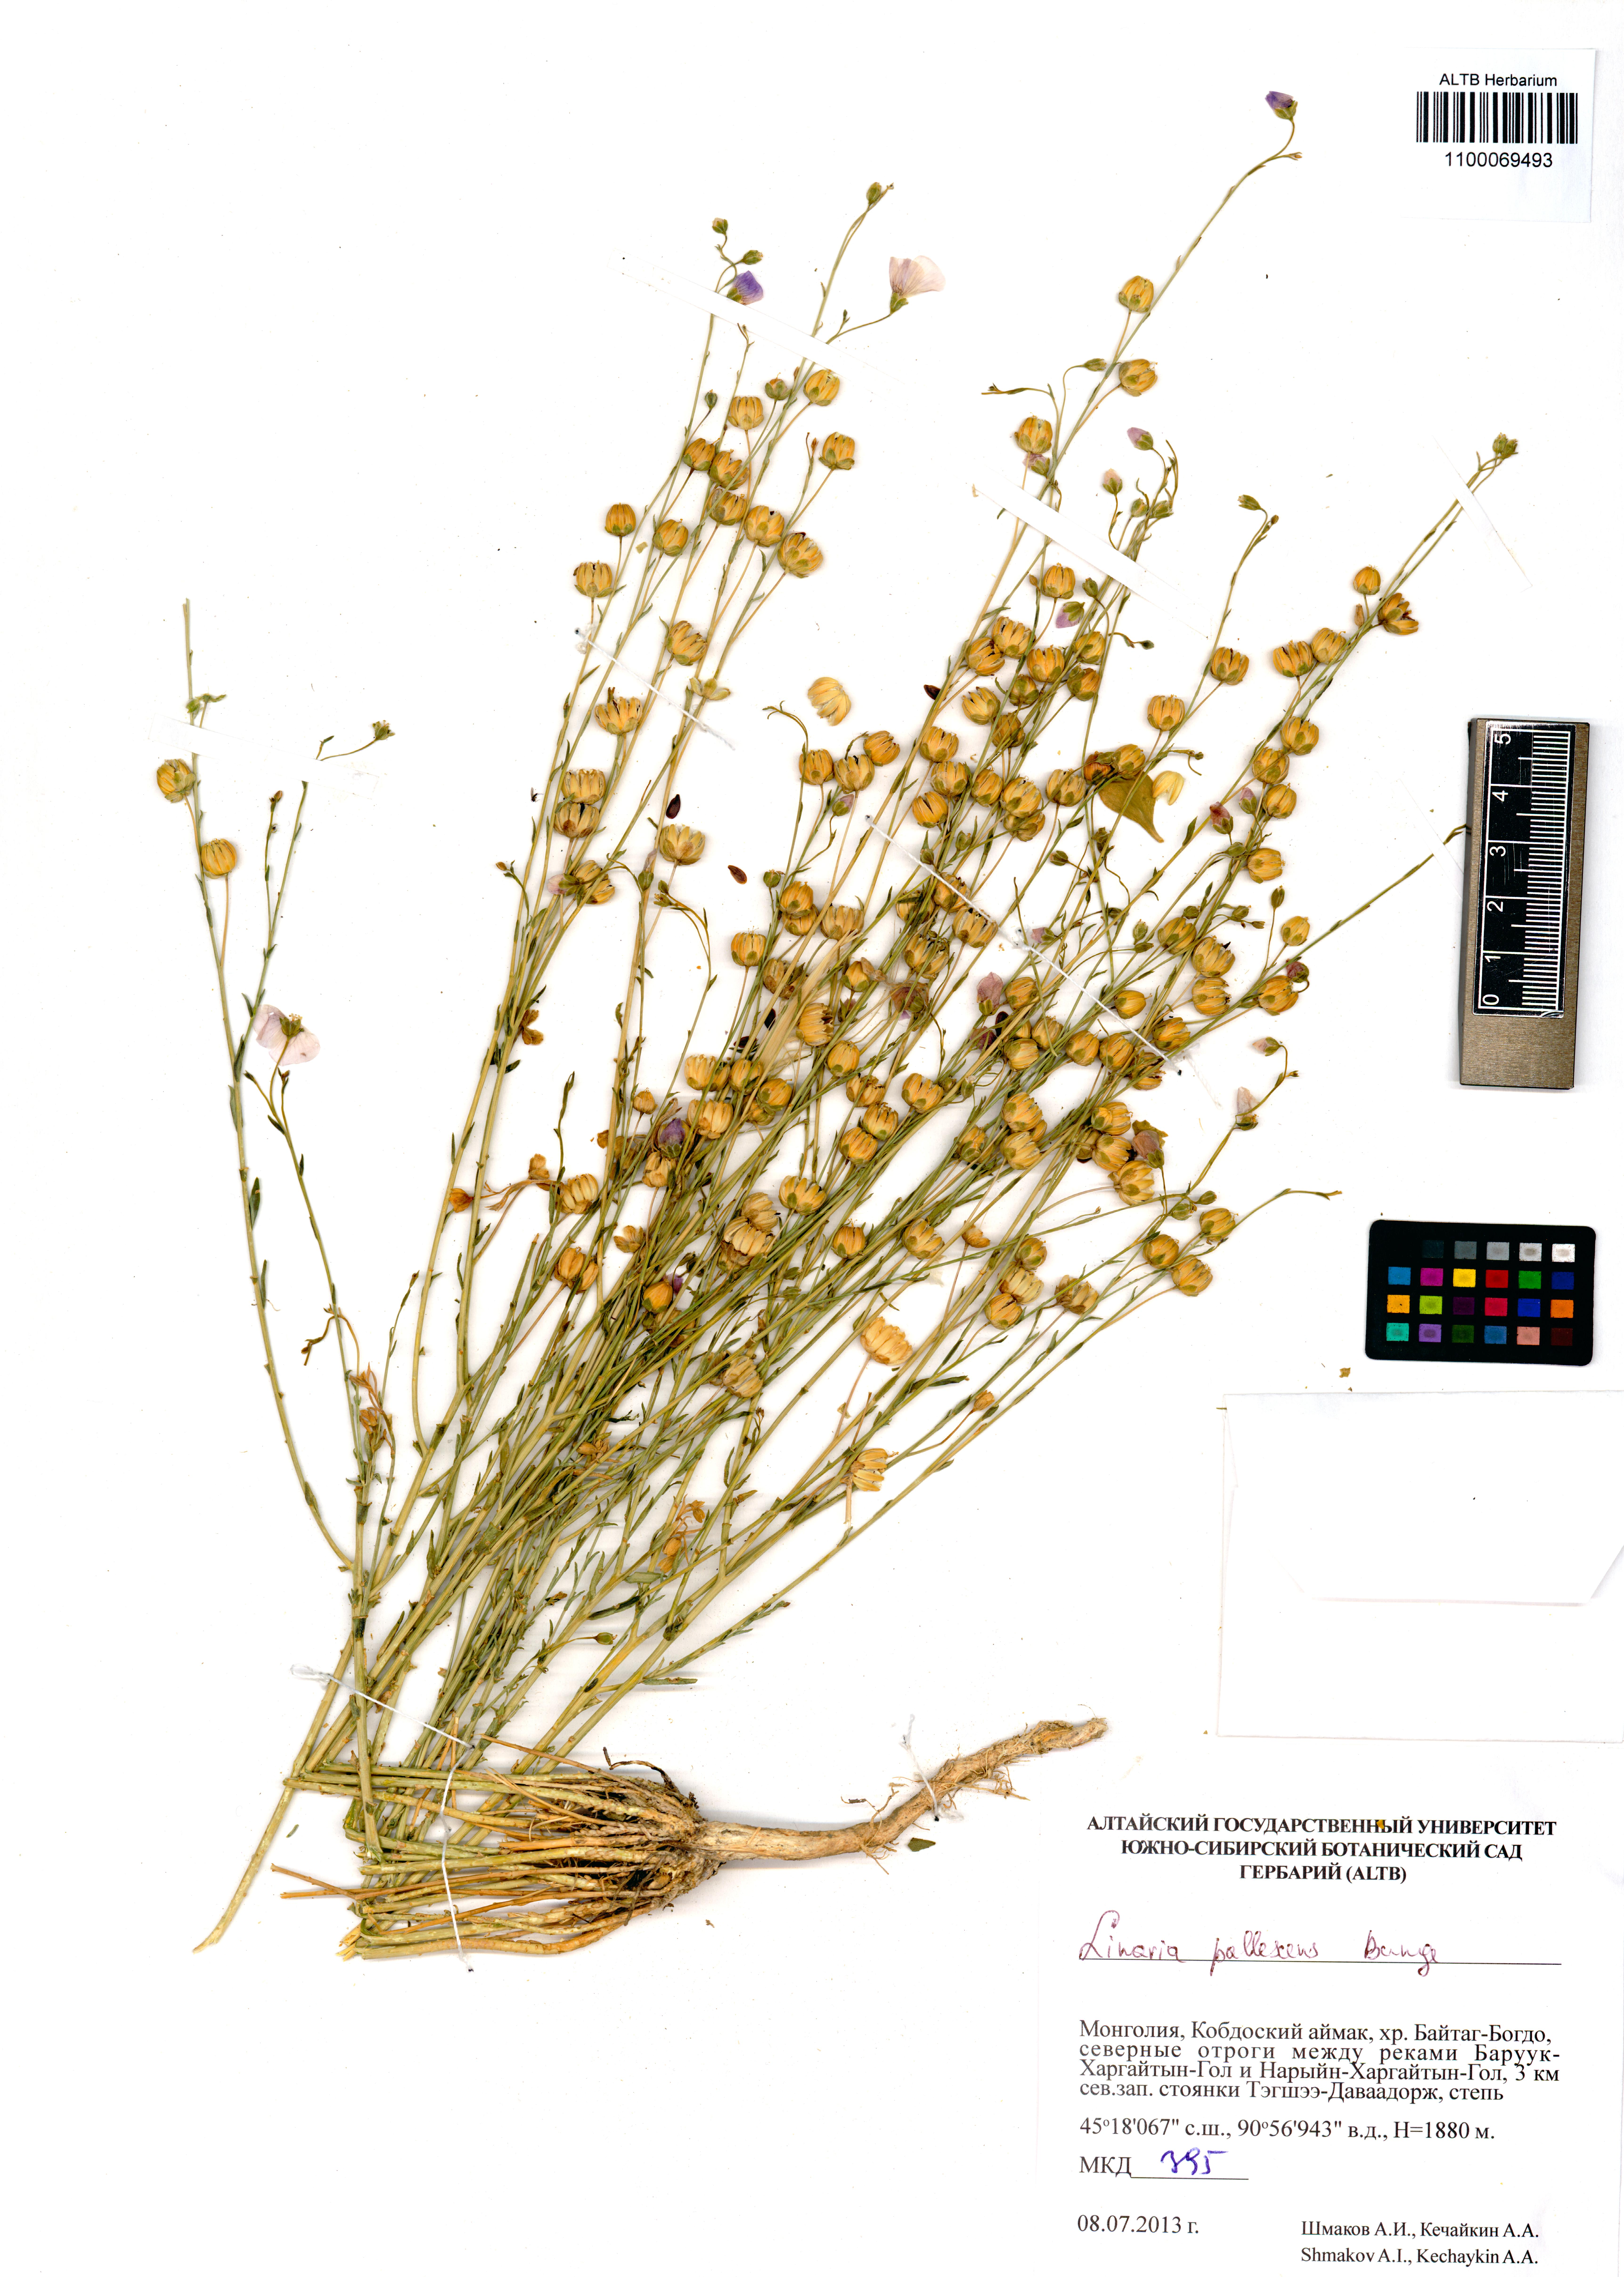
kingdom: Plantae
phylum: Tracheophyta
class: Magnoliopsida
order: Malpighiales
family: Linaceae
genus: Linum
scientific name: Linum pallescens
